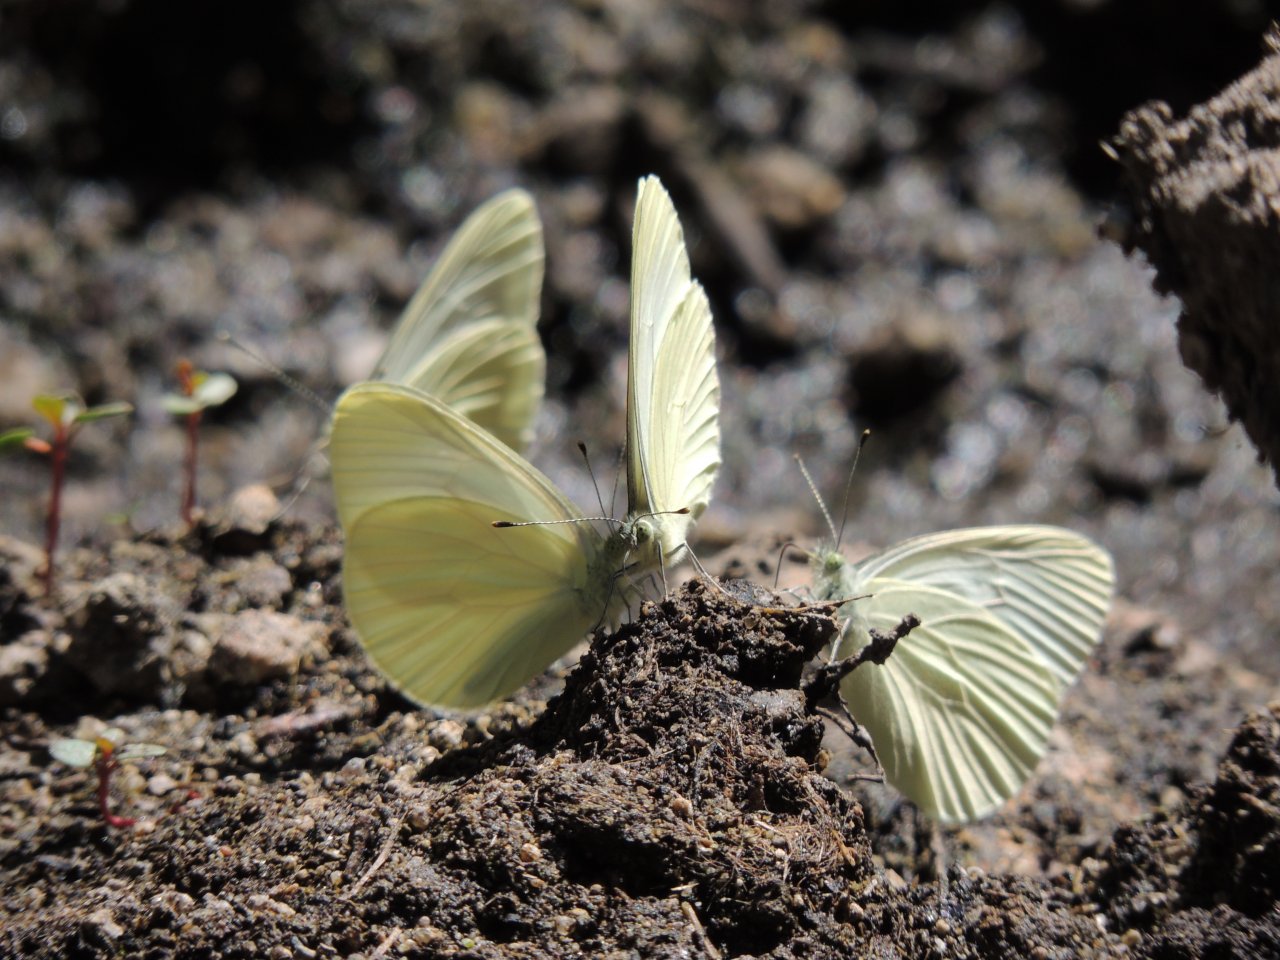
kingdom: Animalia
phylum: Arthropoda
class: Insecta
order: Lepidoptera
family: Pieridae
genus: Pieris
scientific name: Pieris marginalis
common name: Margined White
